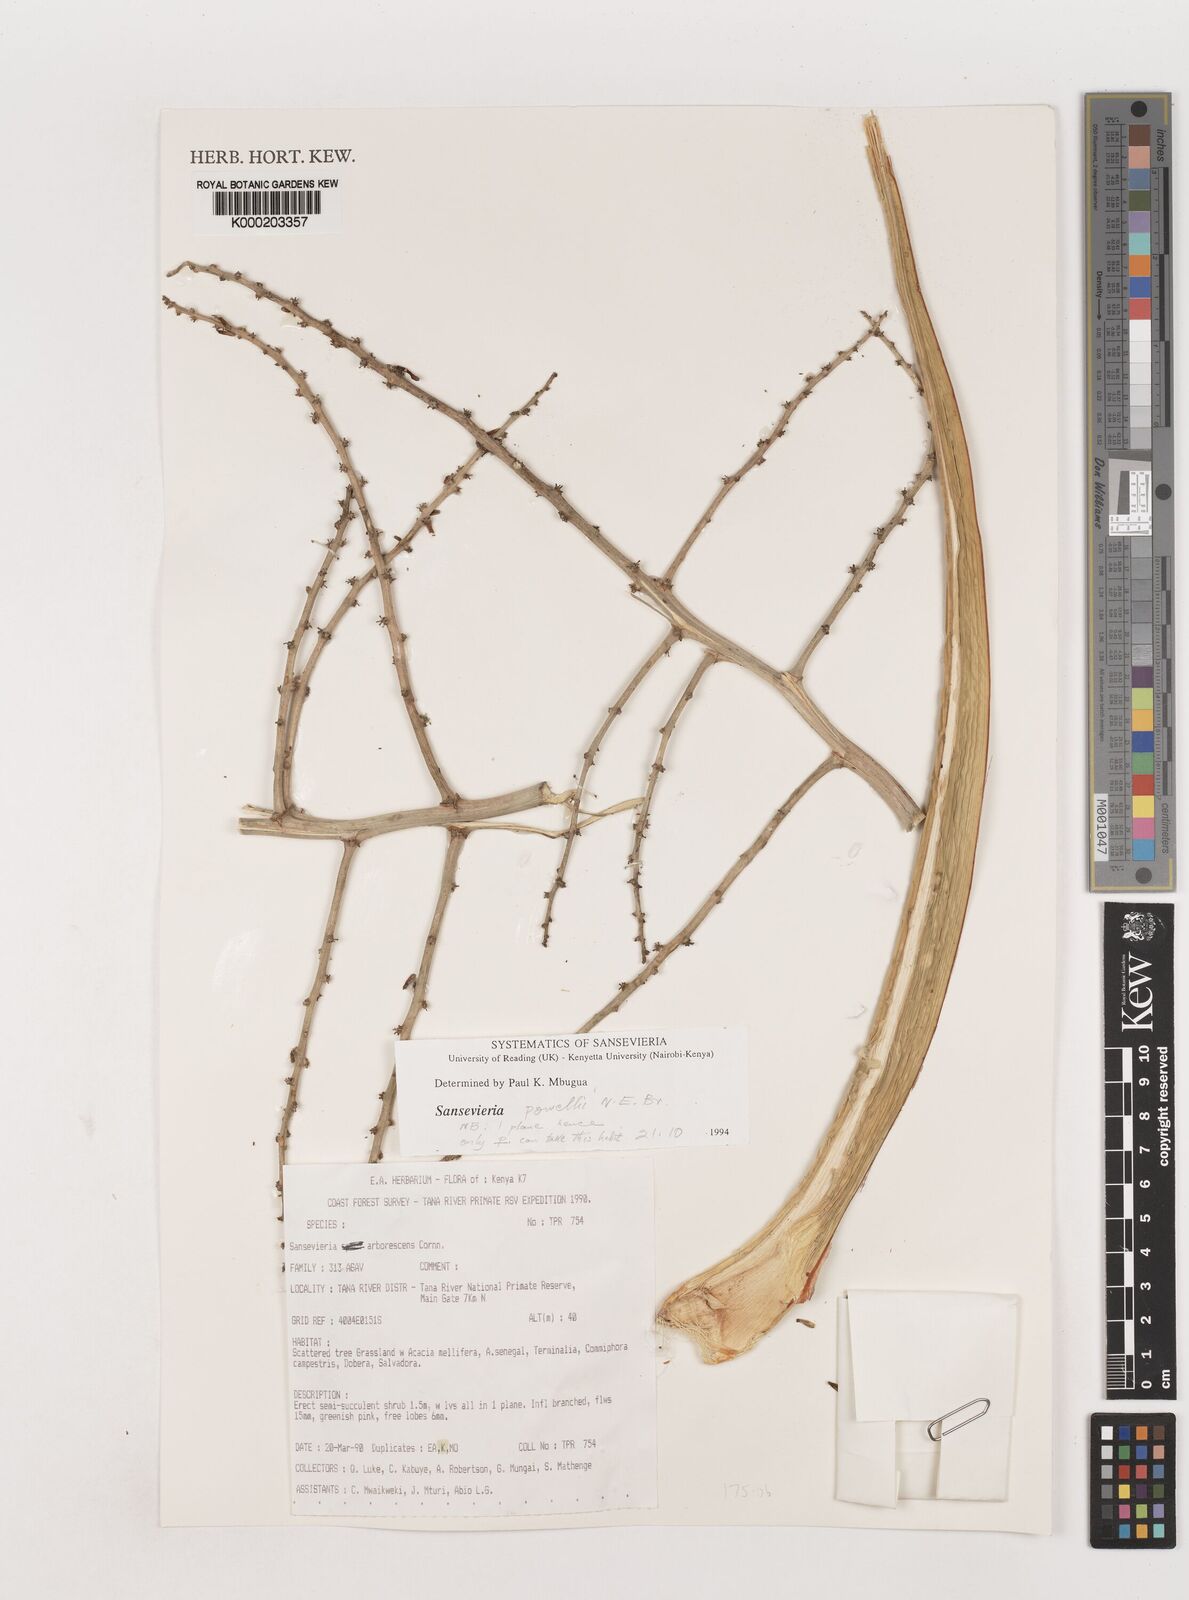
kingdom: Plantae
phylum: Tracheophyta
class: Liliopsida
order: Asparagales
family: Asparagaceae
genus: Dracaena
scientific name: Dracaena powellii
